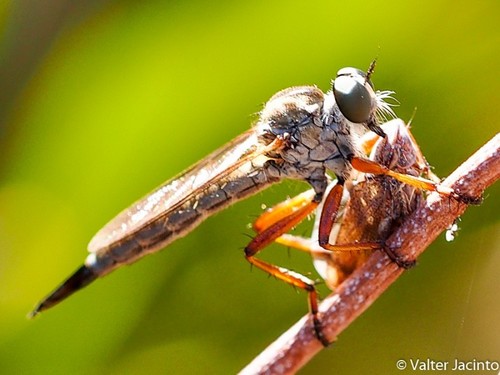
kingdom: Animalia
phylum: Arthropoda
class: Insecta
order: Diptera
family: Asilidae
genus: Aneomochtherus
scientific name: Aneomochtherus lepidus
